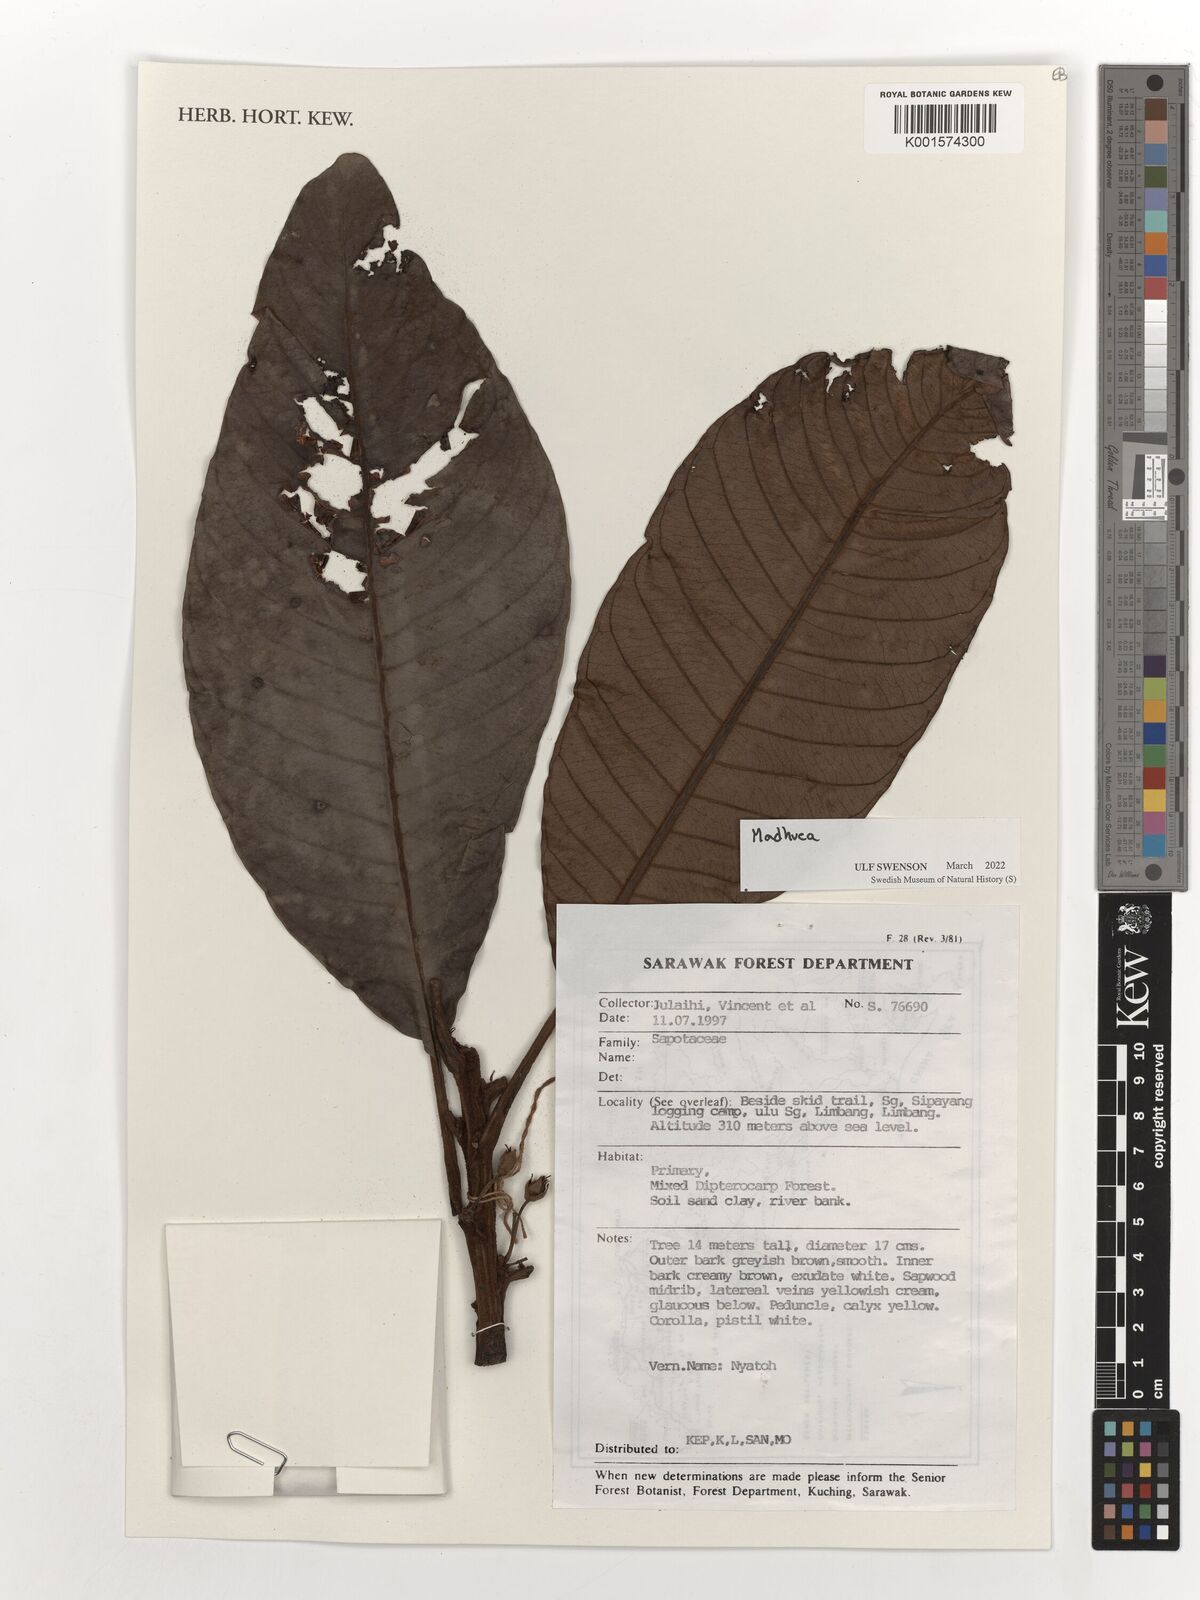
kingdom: Plantae
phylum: Tracheophyta
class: Magnoliopsida
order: Ericales
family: Sapotaceae
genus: Madhuca
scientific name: Madhuca
